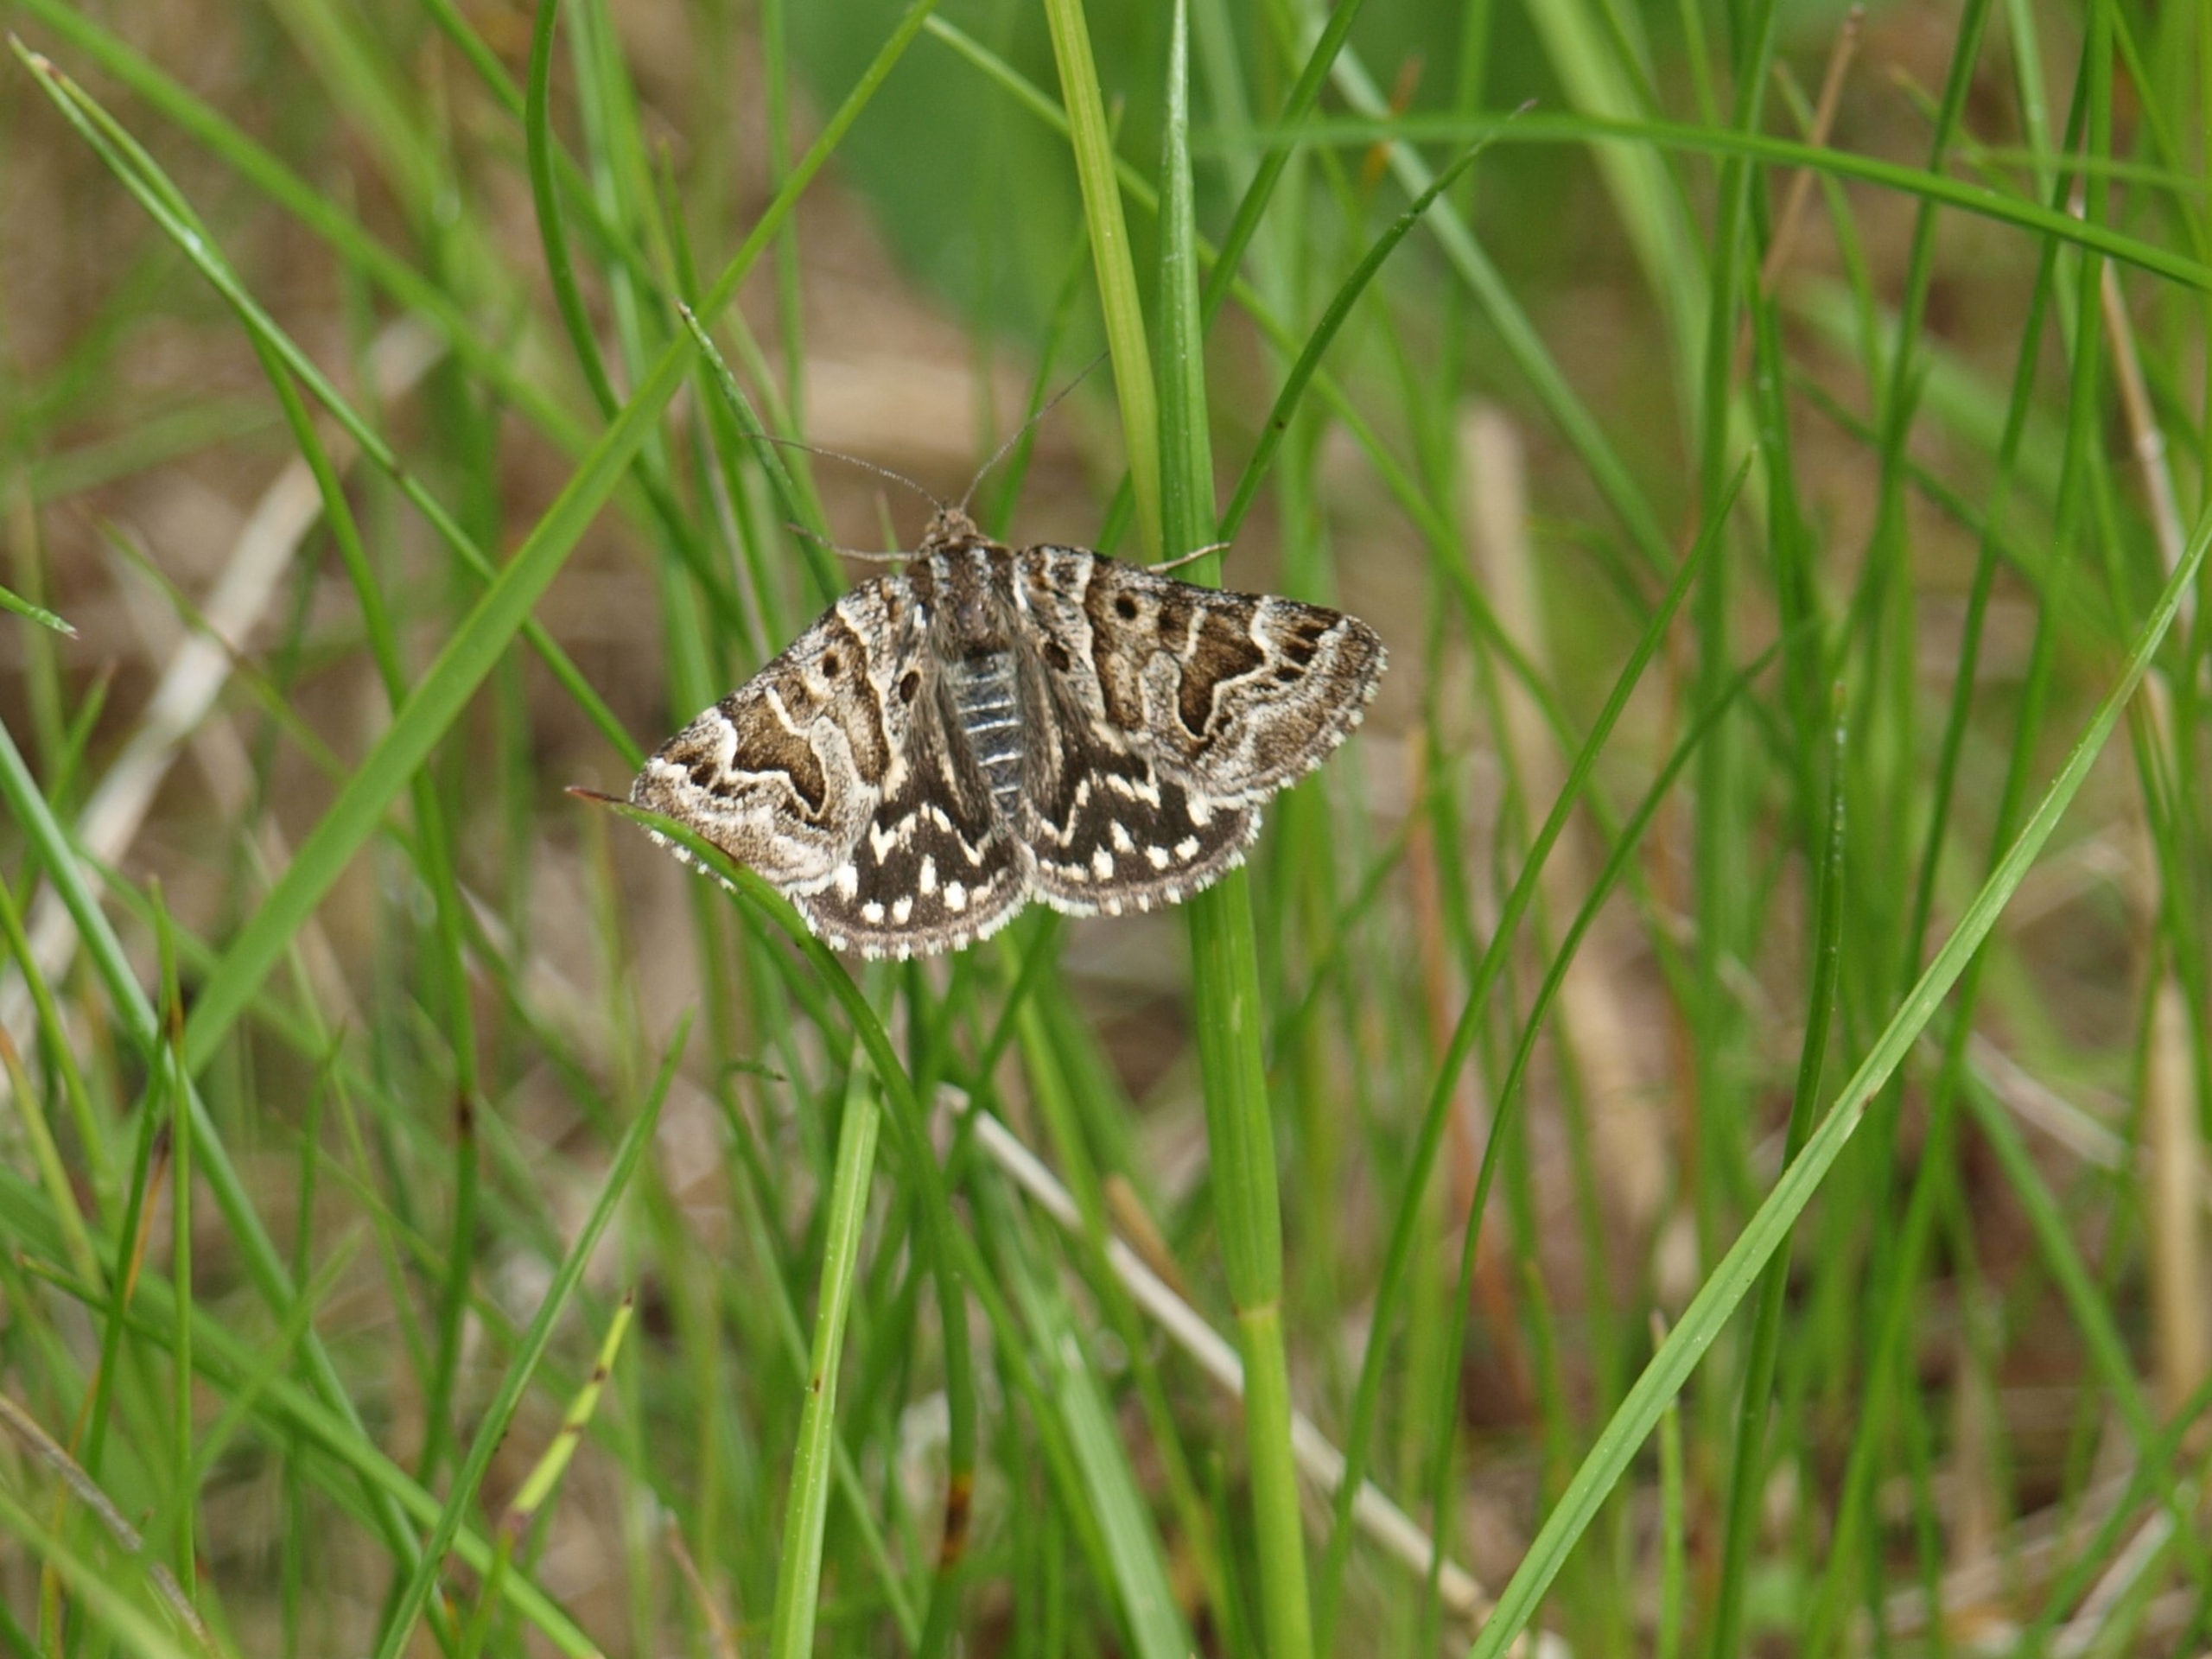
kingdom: Animalia
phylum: Arthropoda
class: Insecta
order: Lepidoptera
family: Erebidae
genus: Callistege
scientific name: Callistege mi
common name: Marmoreret kløverugle
